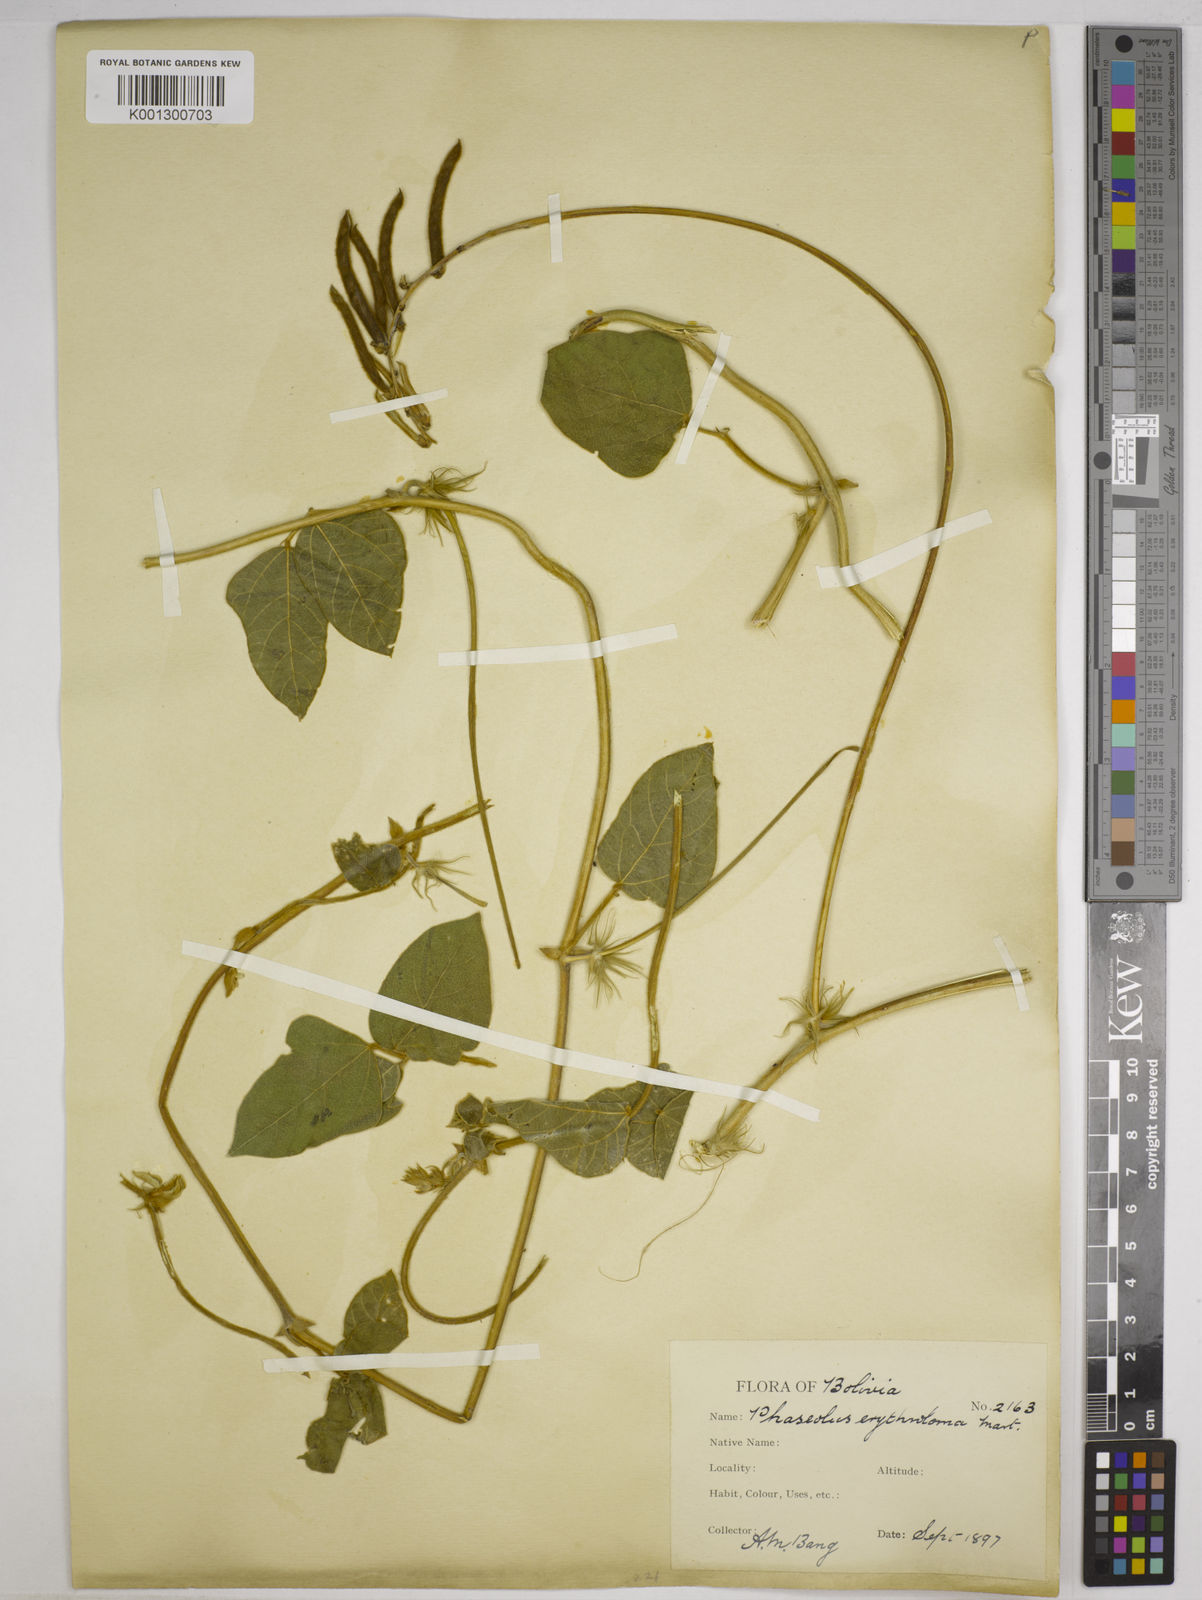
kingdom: Plantae
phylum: Tracheophyta
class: Magnoliopsida
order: Fabales
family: Fabaceae
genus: Macroptilium
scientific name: Macroptilium erythroloma
